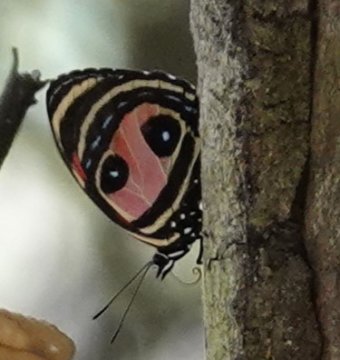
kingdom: Animalia
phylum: Arthropoda
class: Insecta
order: Lepidoptera
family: Nymphalidae
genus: Catagramma
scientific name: Catagramma Callicore pitheas
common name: Two-eyed Eighty-eight
